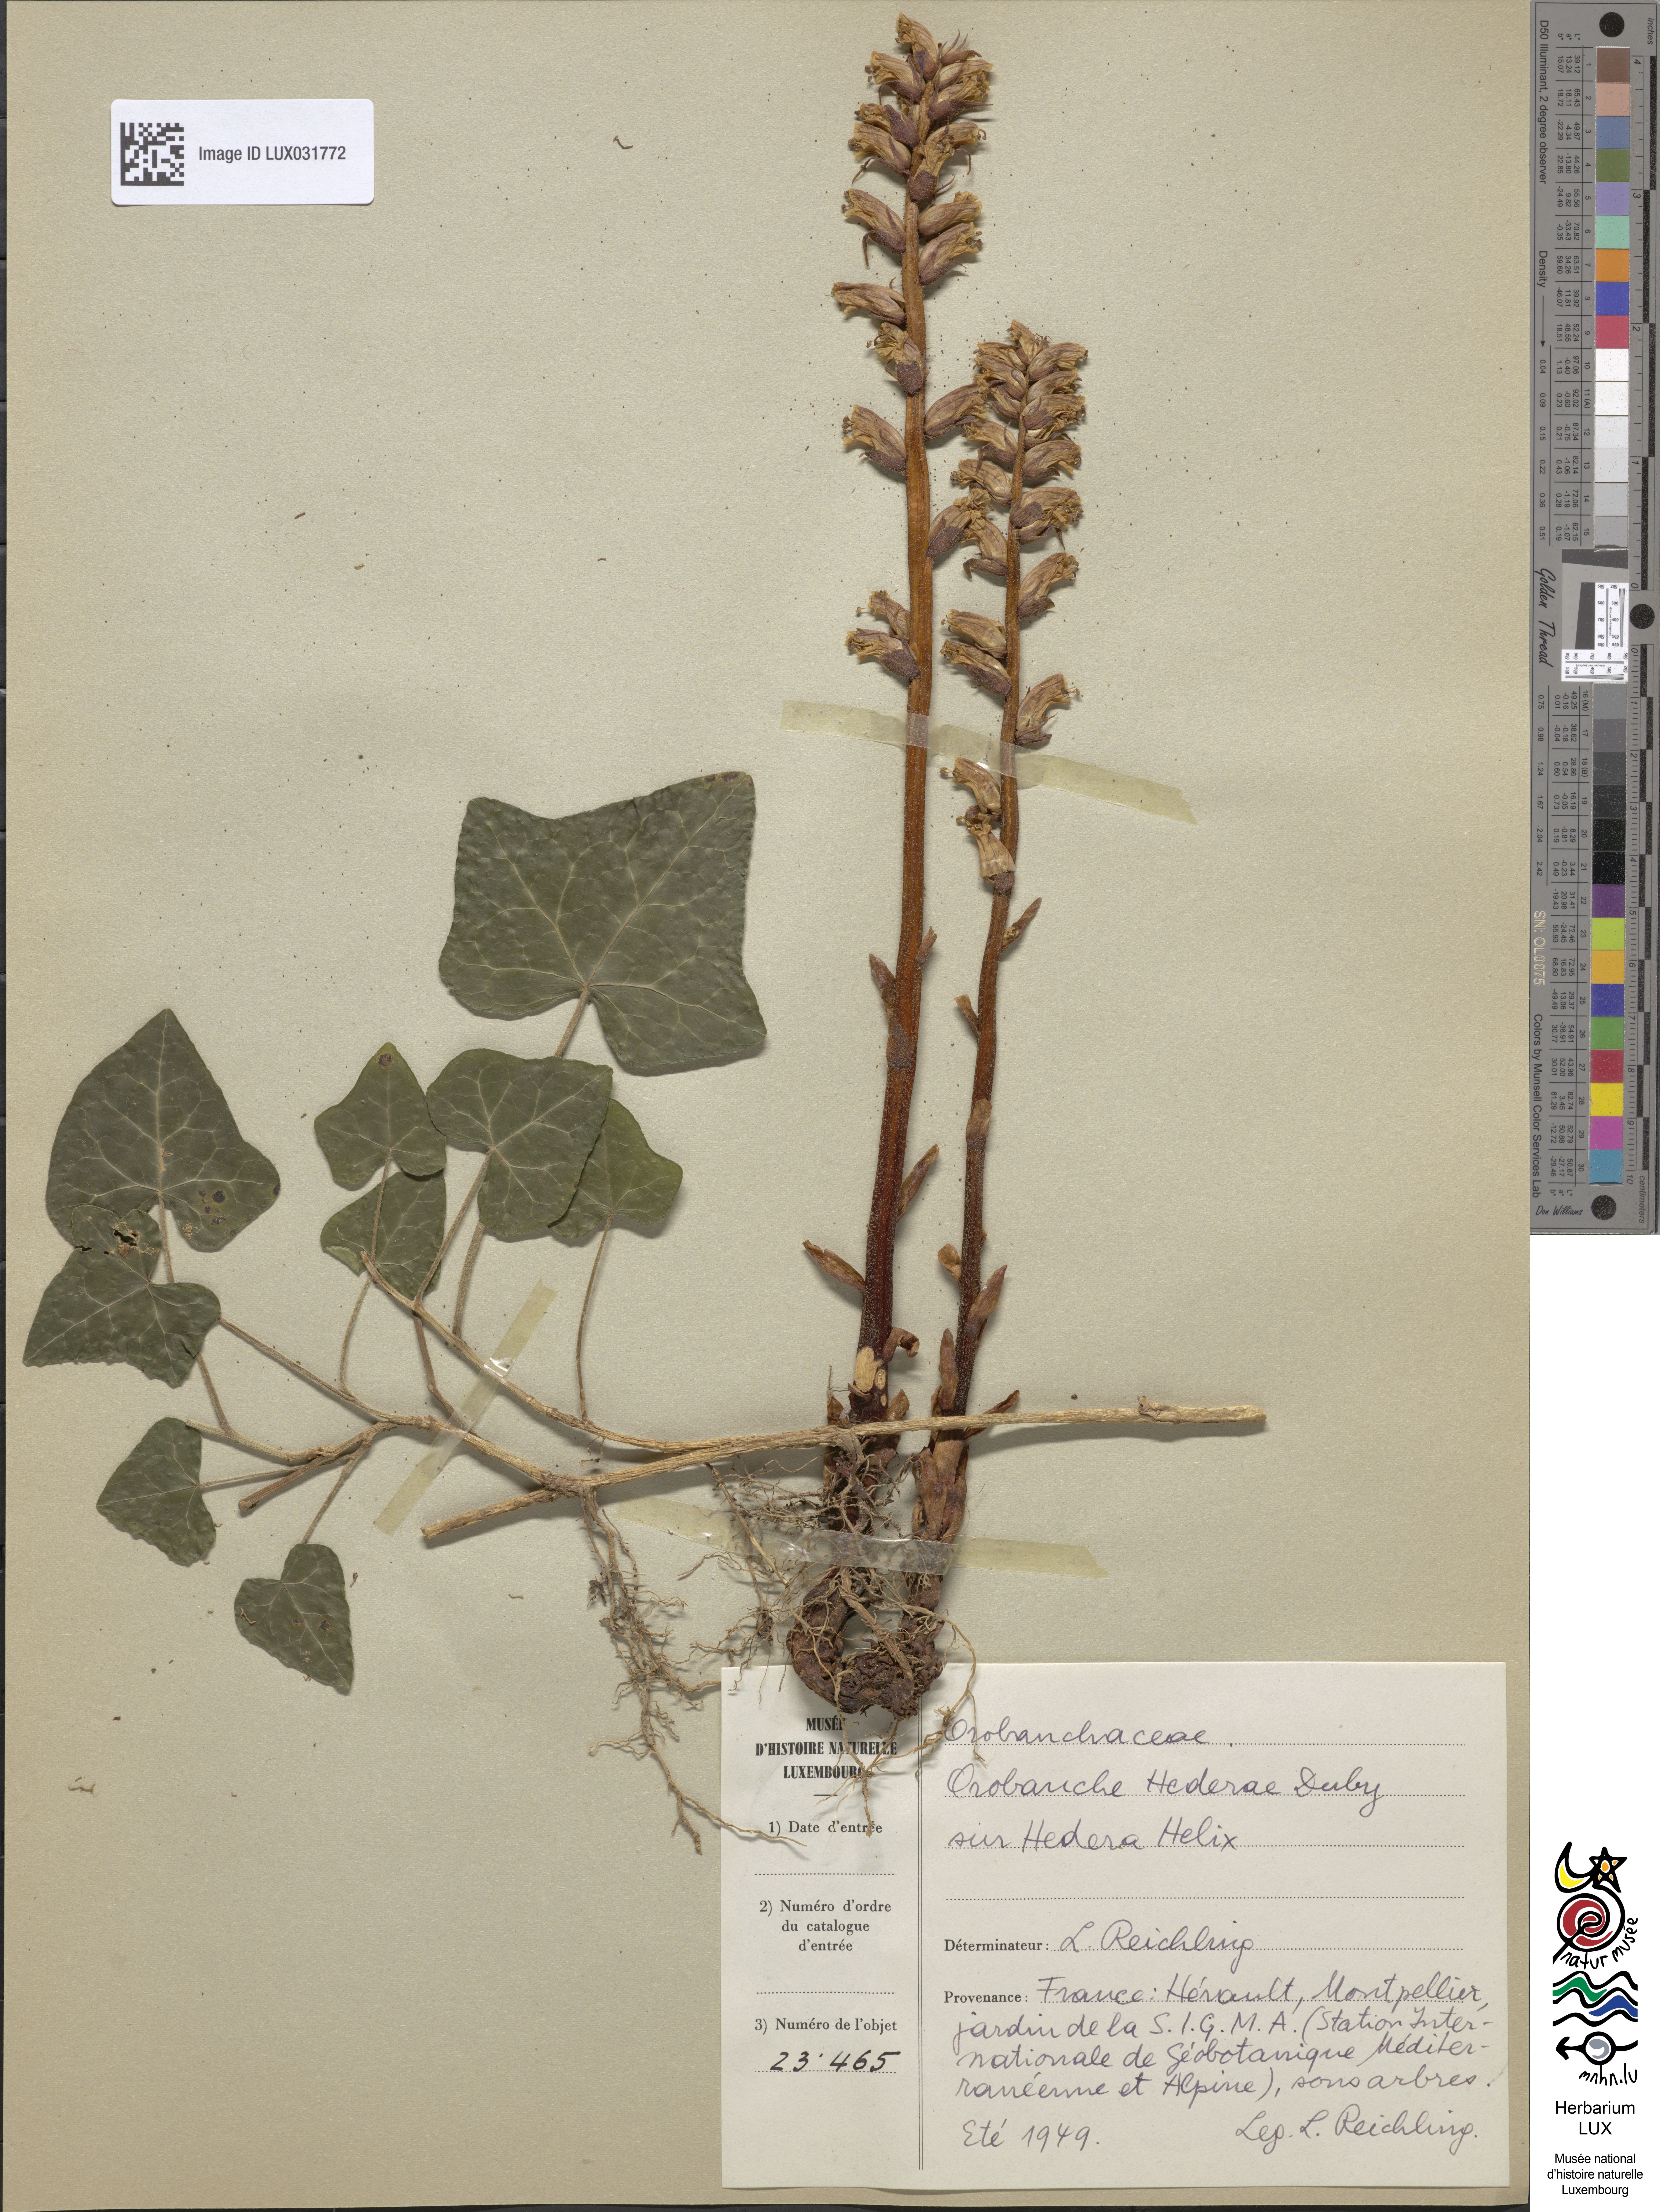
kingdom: Plantae
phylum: Tracheophyta
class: Magnoliopsida
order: Lamiales
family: Orobanchaceae
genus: Orobanche
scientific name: Orobanche hederae
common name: Ivy broomrape
